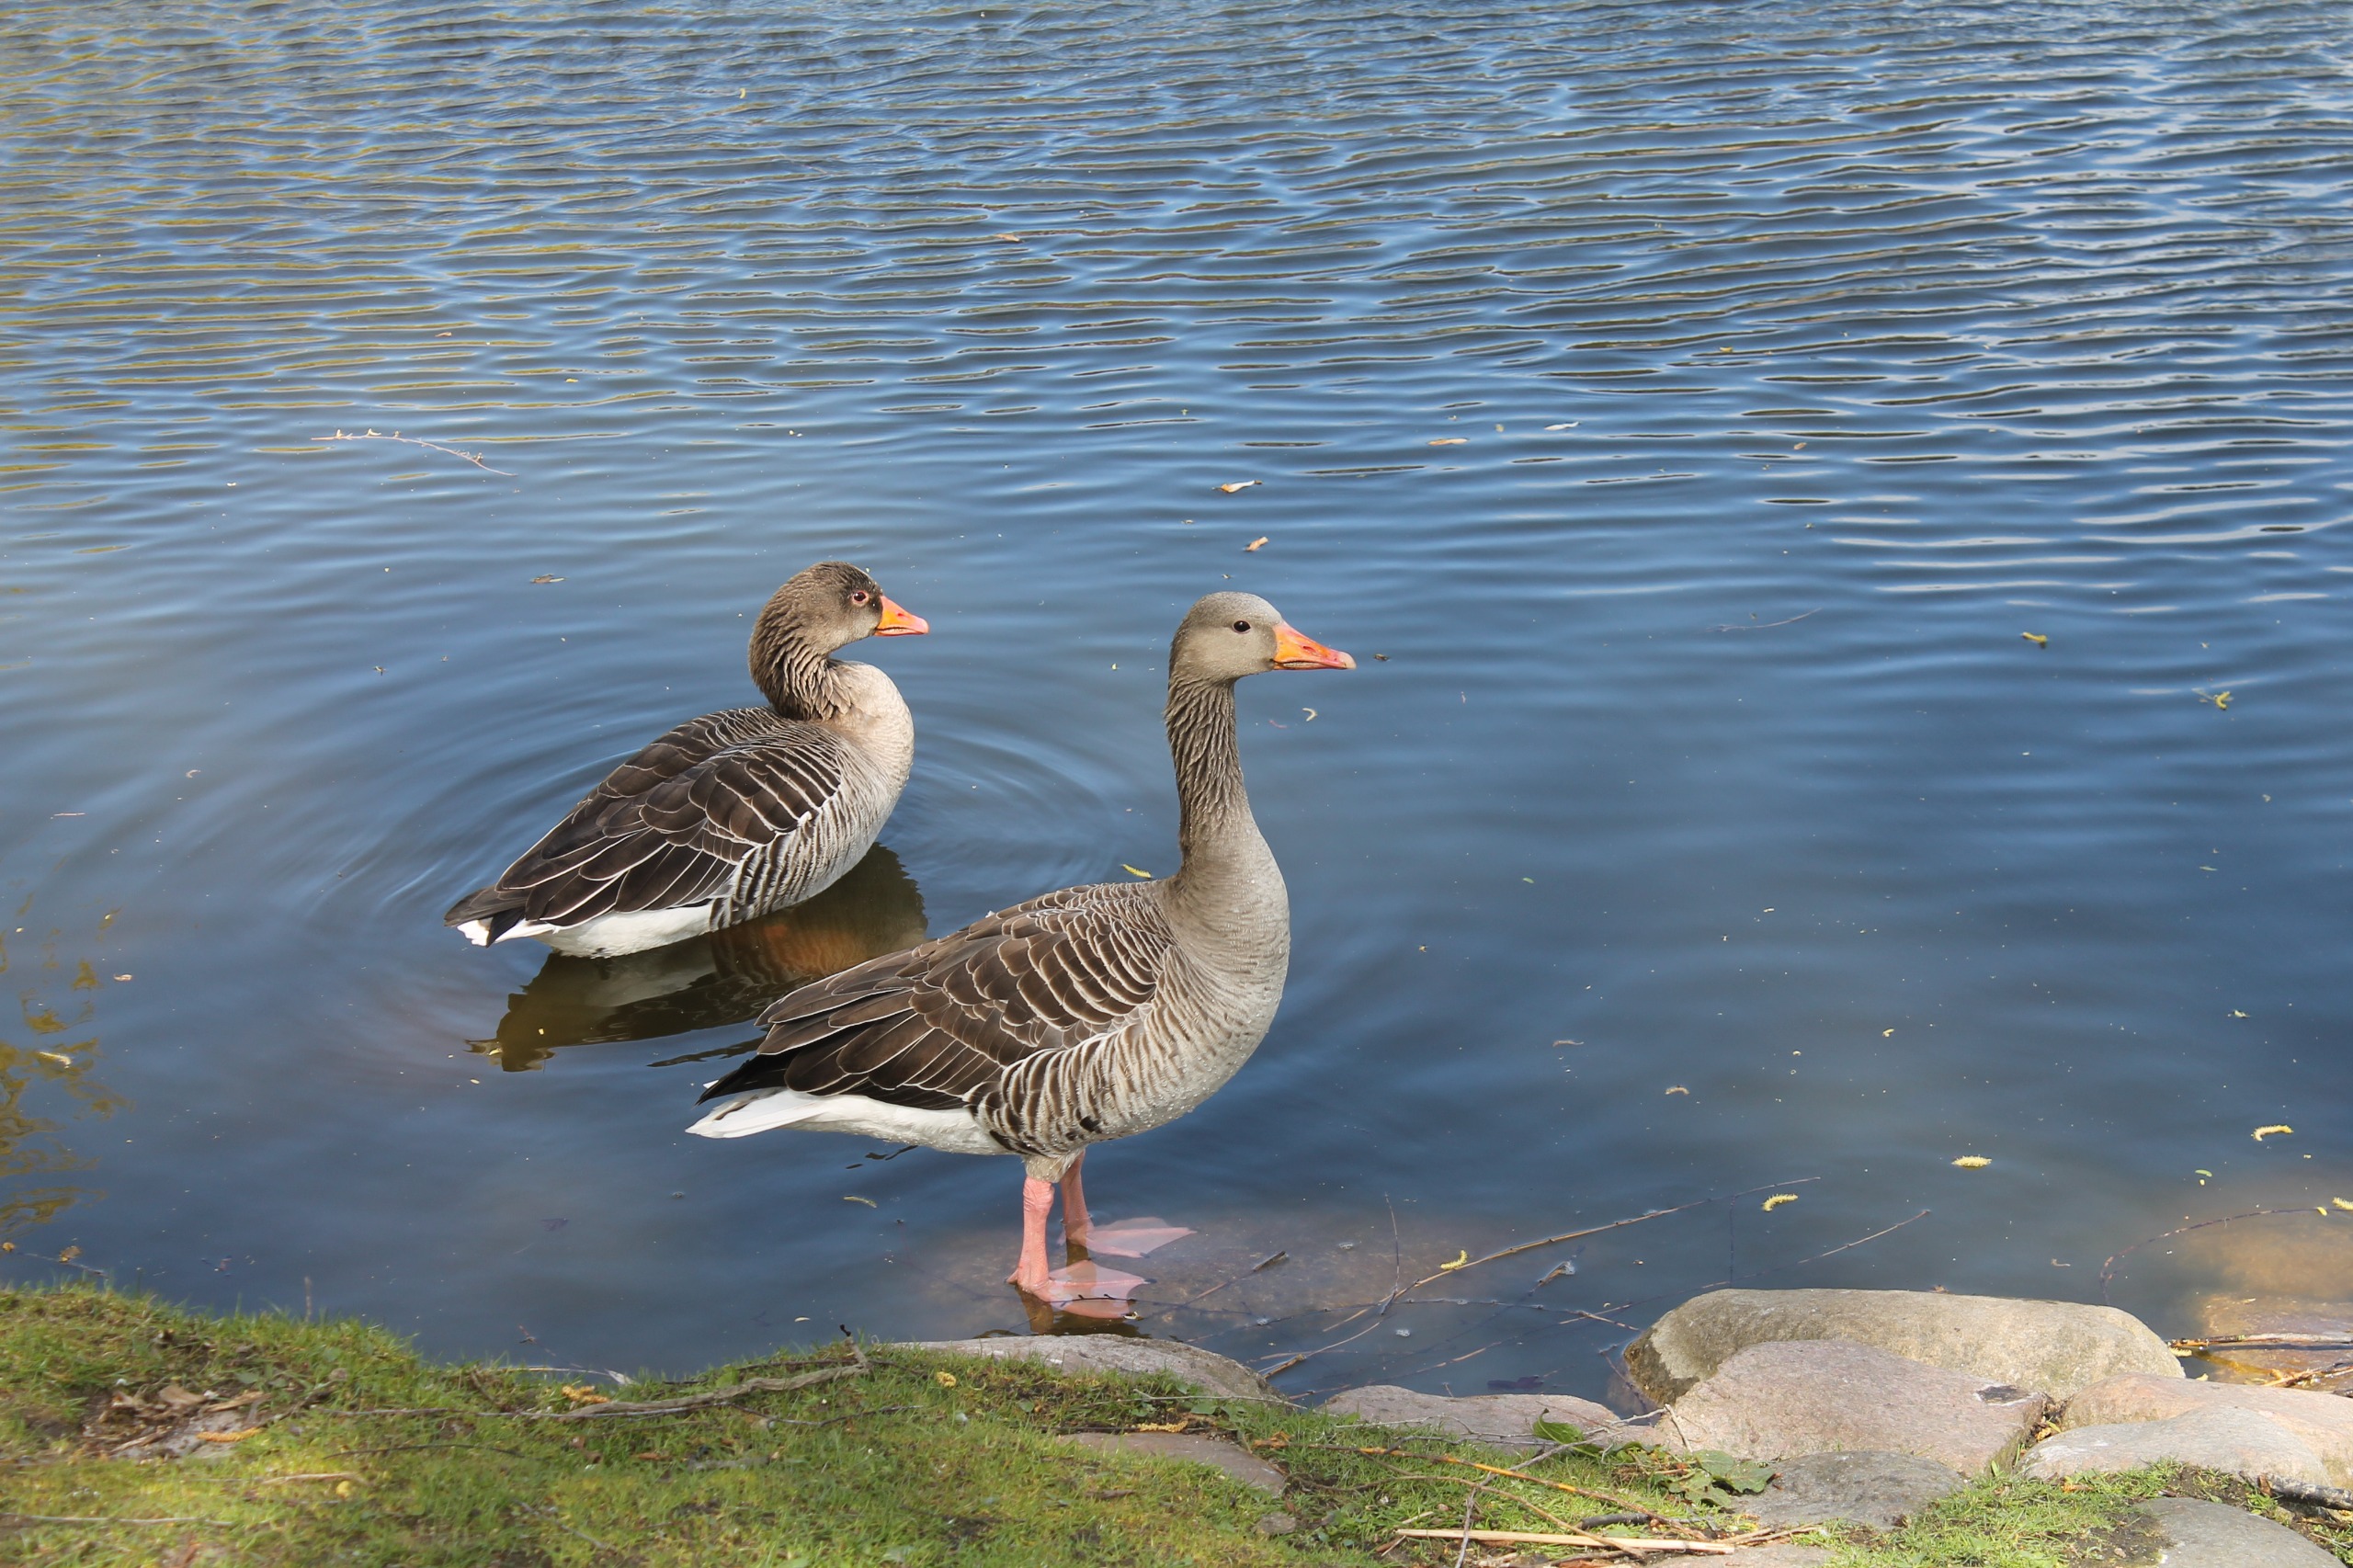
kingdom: Animalia
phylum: Chordata
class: Aves
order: Anseriformes
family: Anatidae
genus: Anser
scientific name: Anser anser
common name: Grågås
